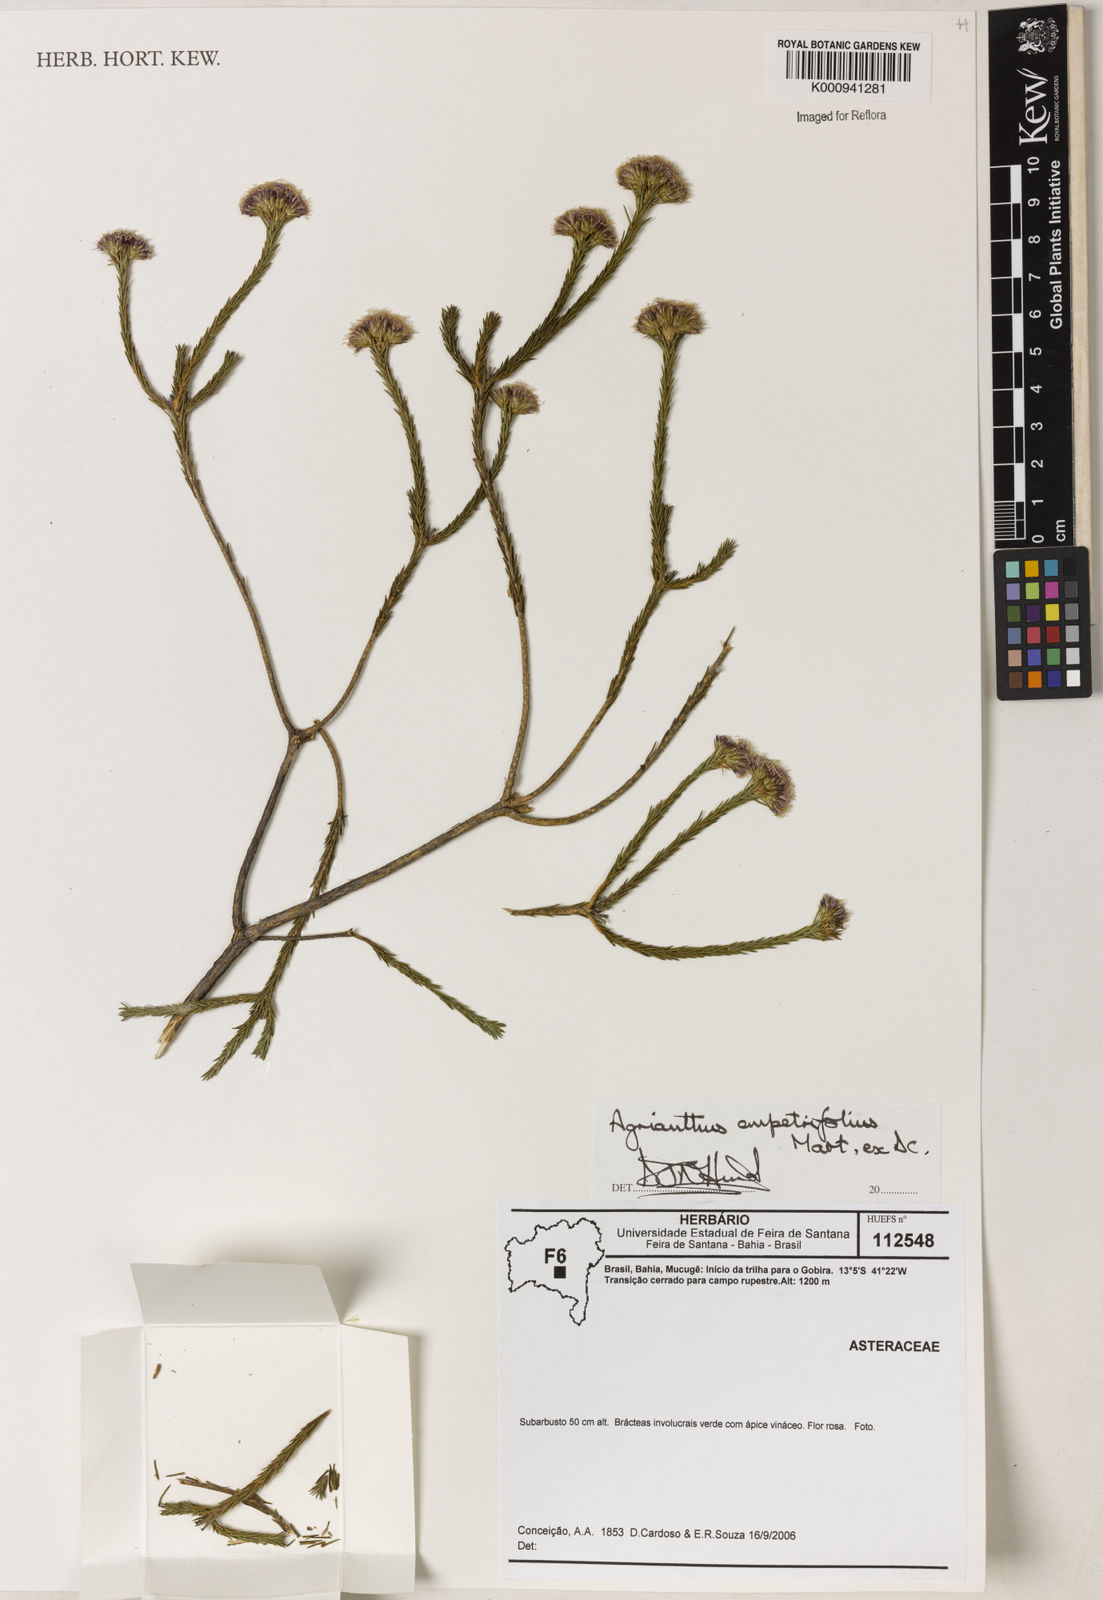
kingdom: Plantae
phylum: Tracheophyta
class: Magnoliopsida
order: Asterales
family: Asteraceae
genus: Agrianthus
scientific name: Agrianthus empetrifolius
